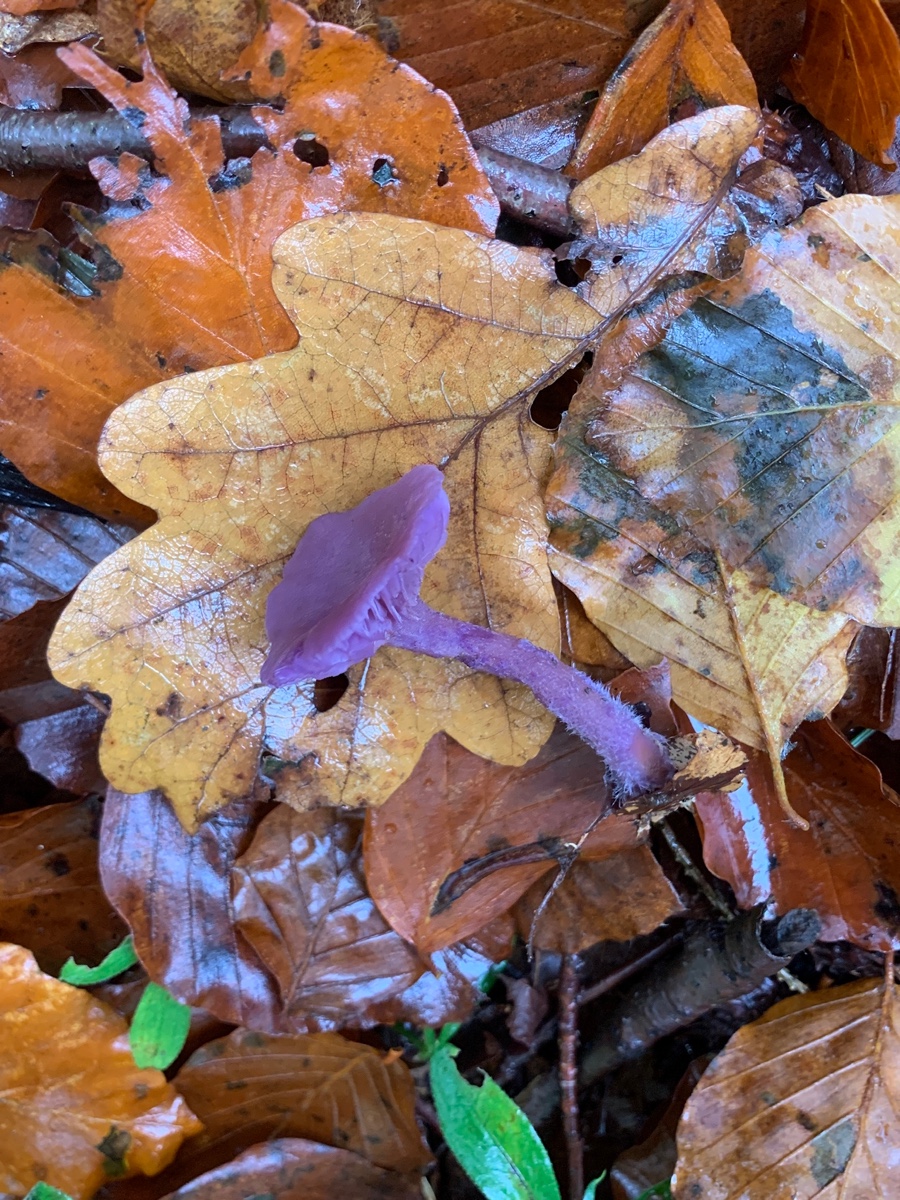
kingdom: Fungi
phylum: Basidiomycota
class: Agaricomycetes
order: Agaricales
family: Hydnangiaceae
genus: Laccaria
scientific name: Laccaria amethystina
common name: violet ametysthat
